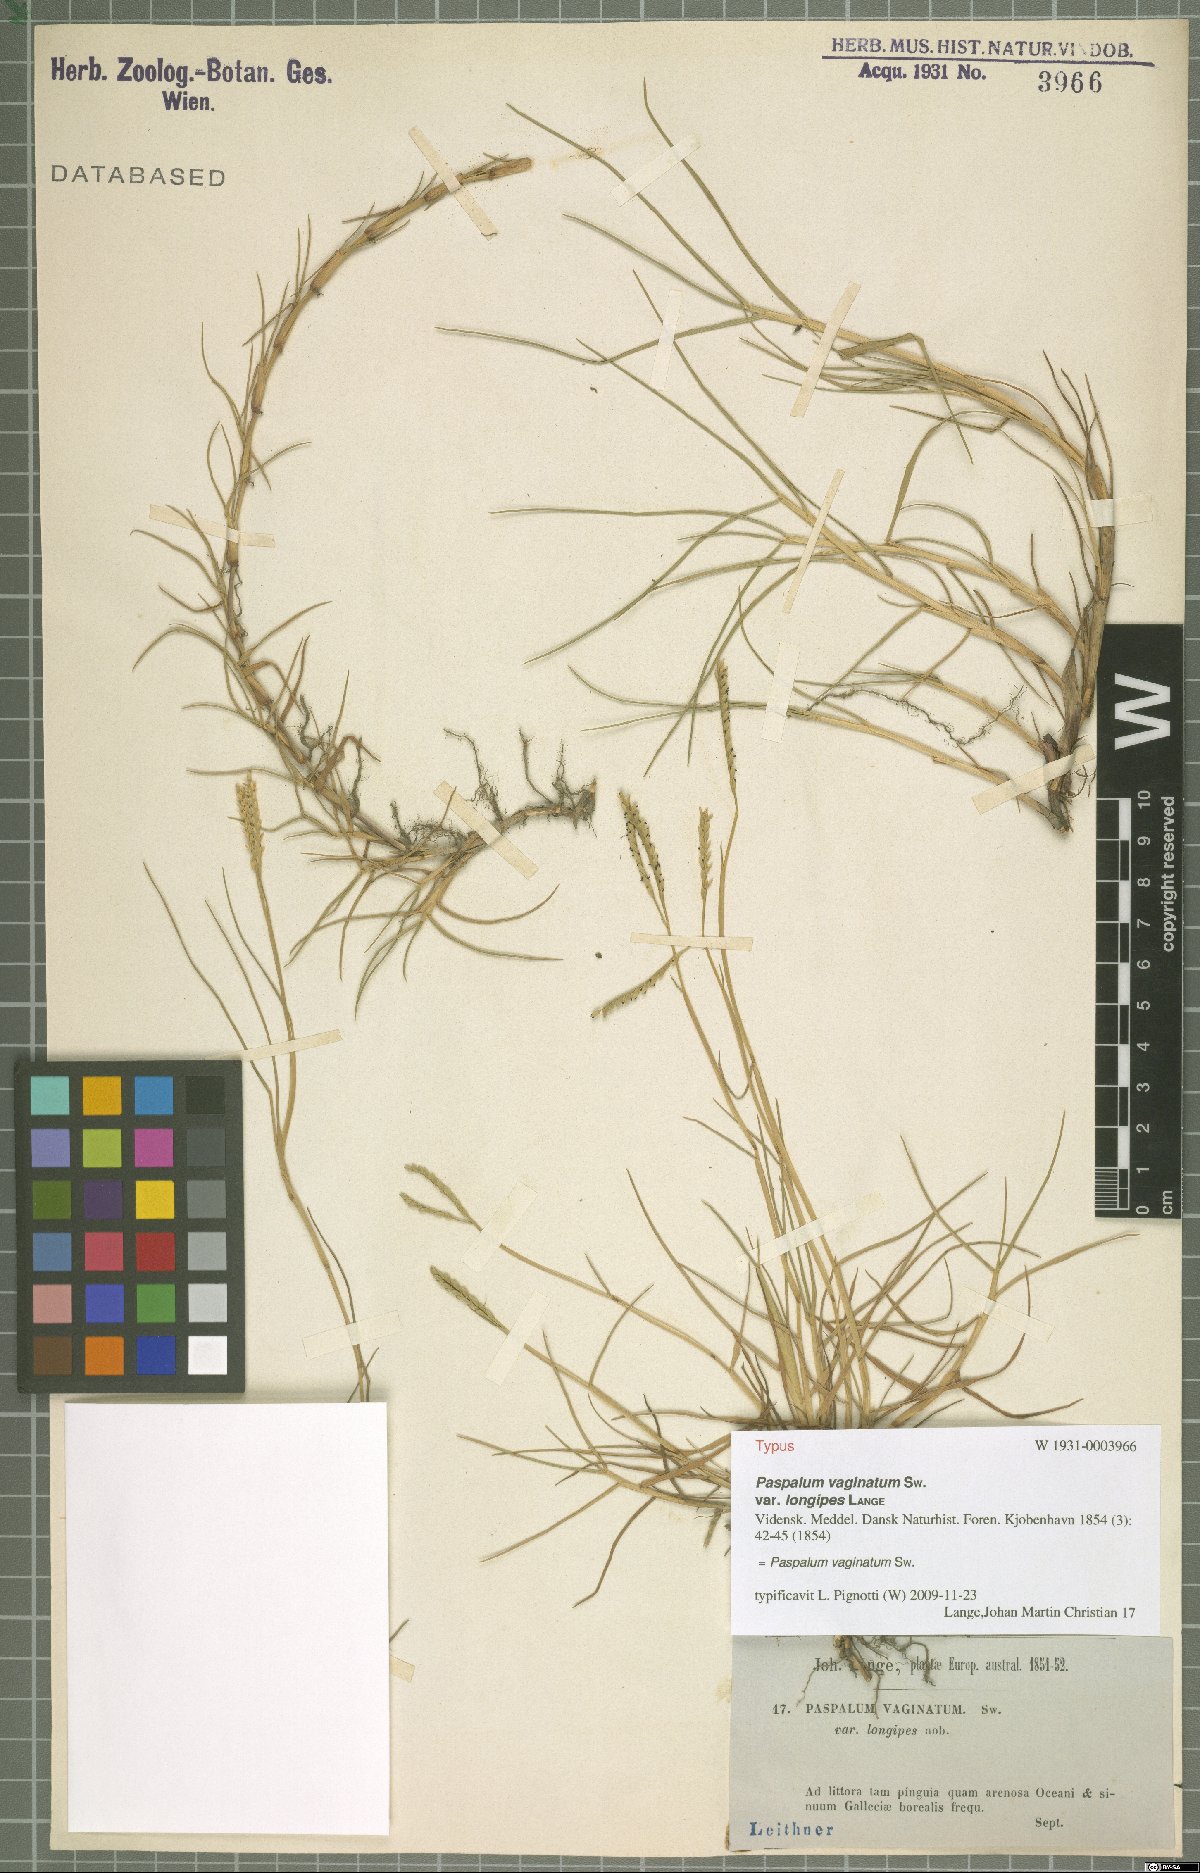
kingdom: Plantae
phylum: Tracheophyta
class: Liliopsida
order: Poales
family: Poaceae
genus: Paspalum
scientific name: Paspalum vaginatum
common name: Seashore paspalum
